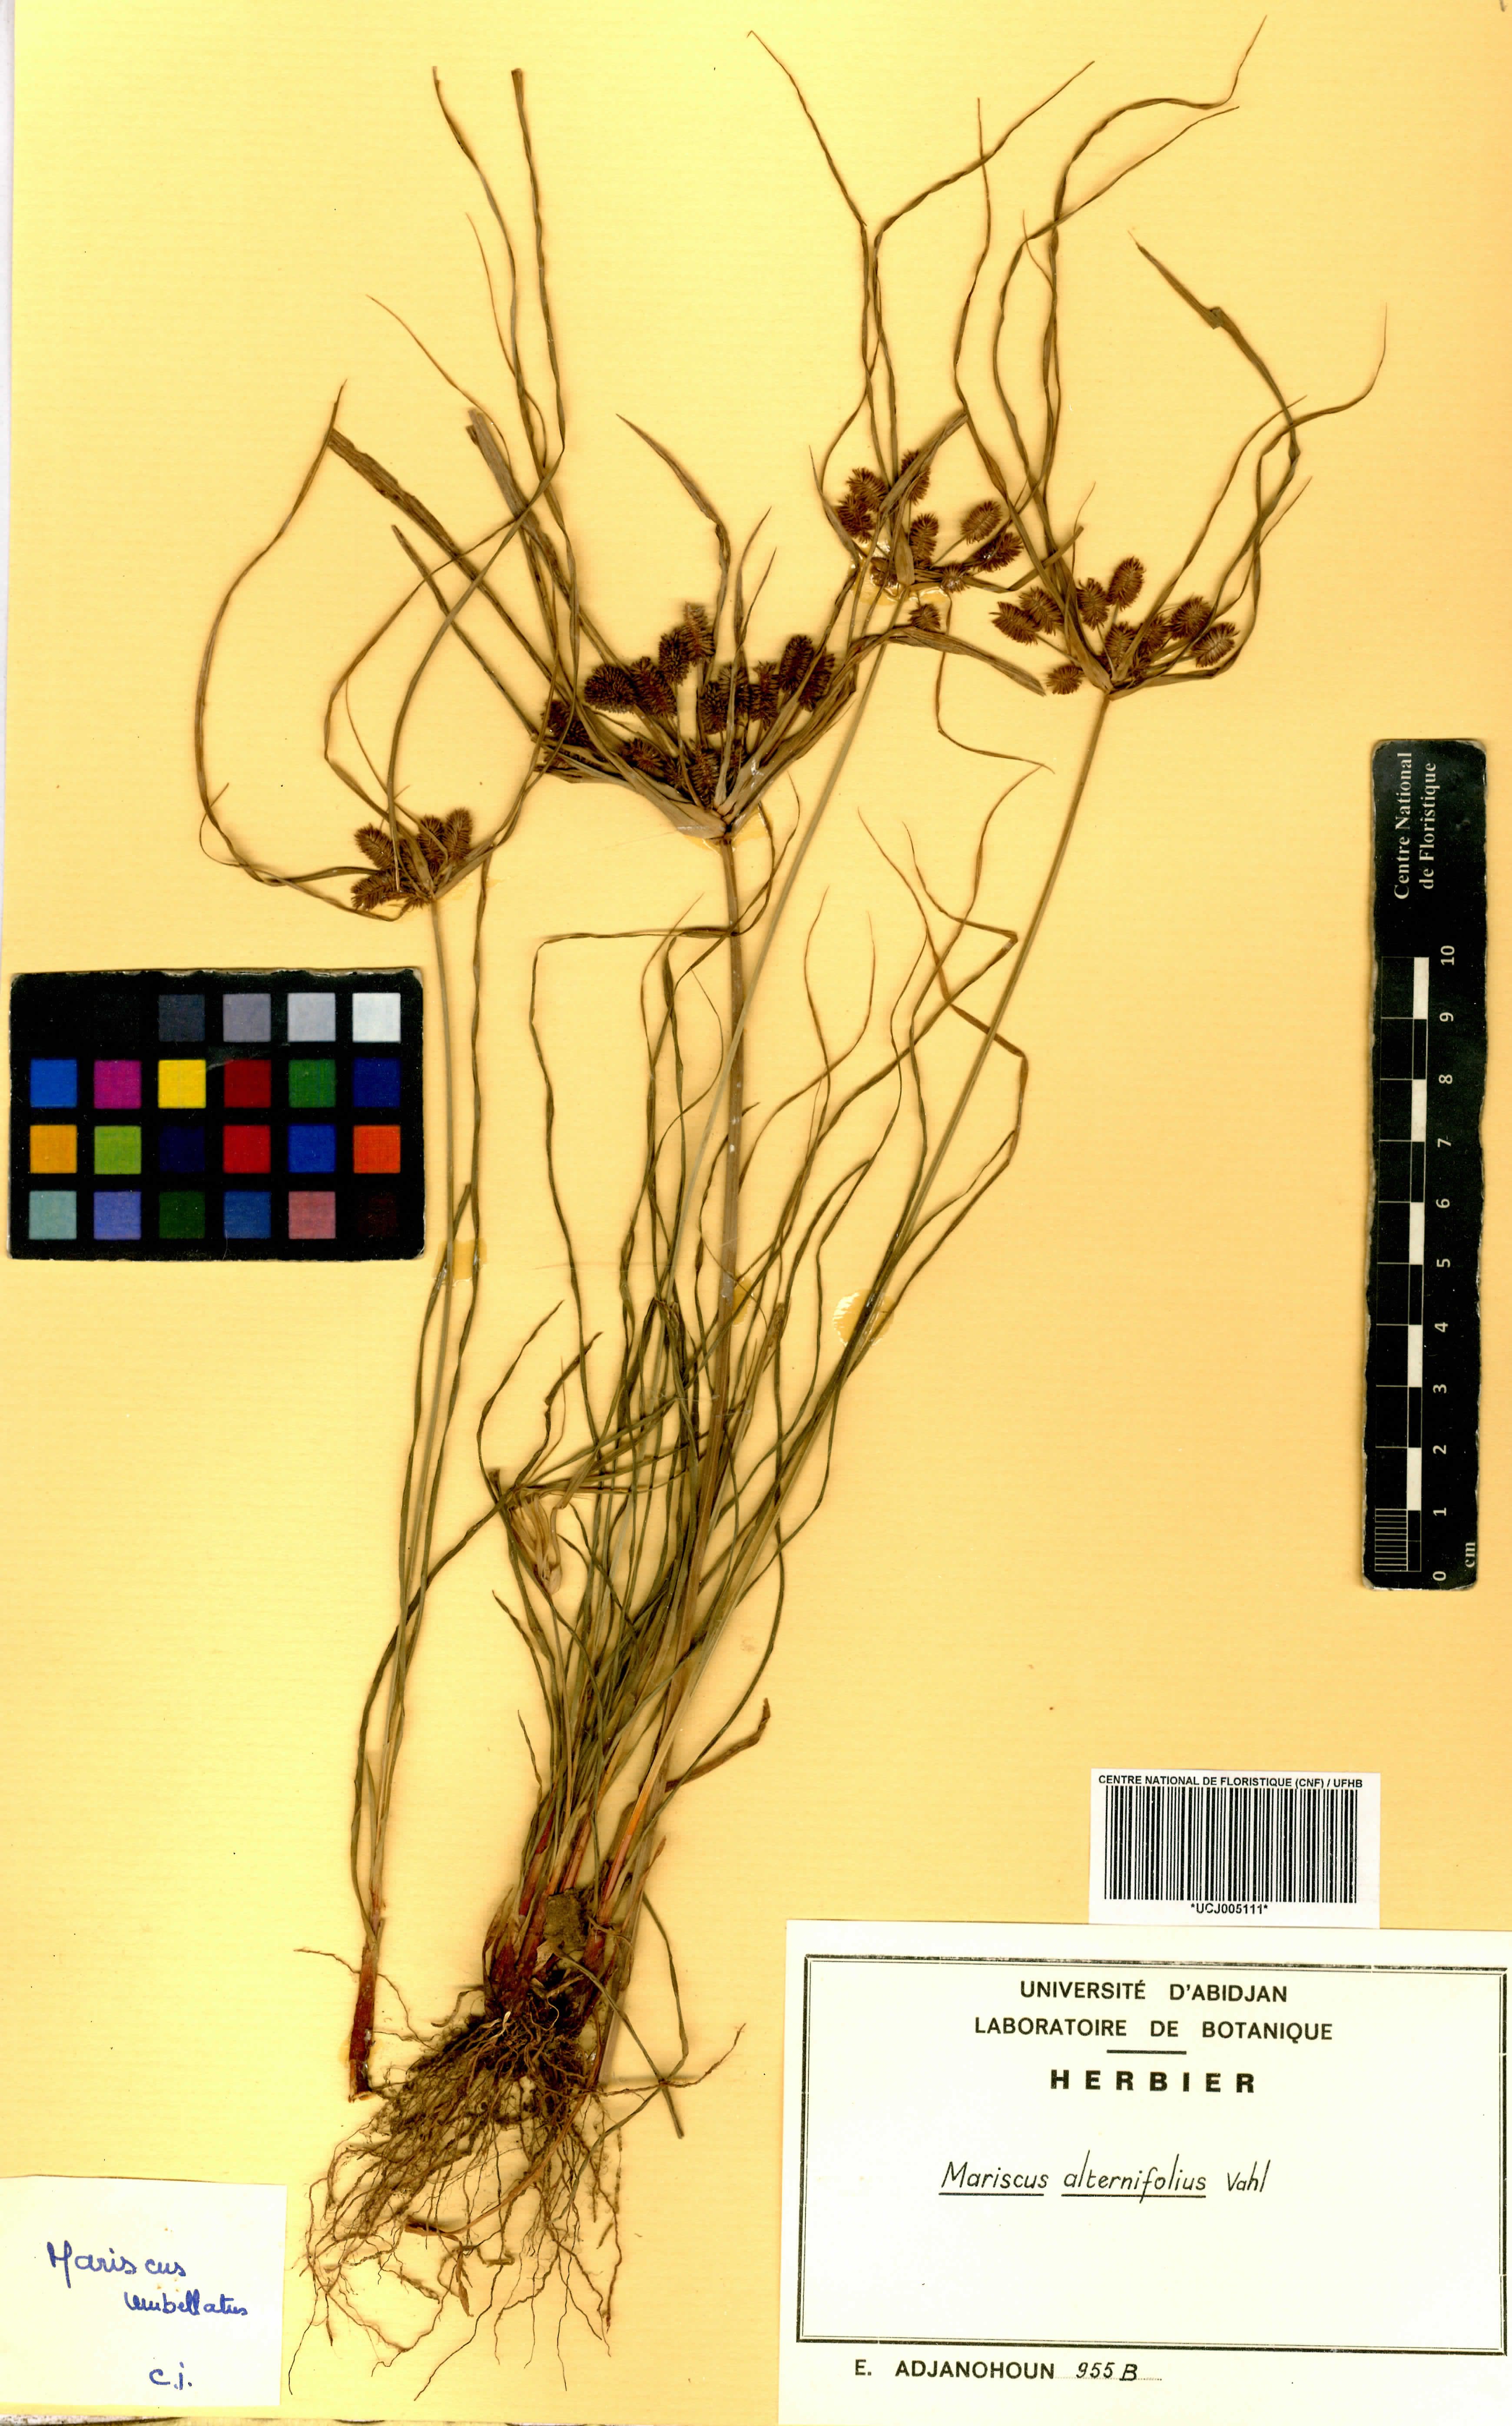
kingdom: Plantae
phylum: Tracheophyta
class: Liliopsida
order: Poales
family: Cyperaceae
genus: Cyperus
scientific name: Cyperus cyperoides
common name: Pacific island flat sedge
